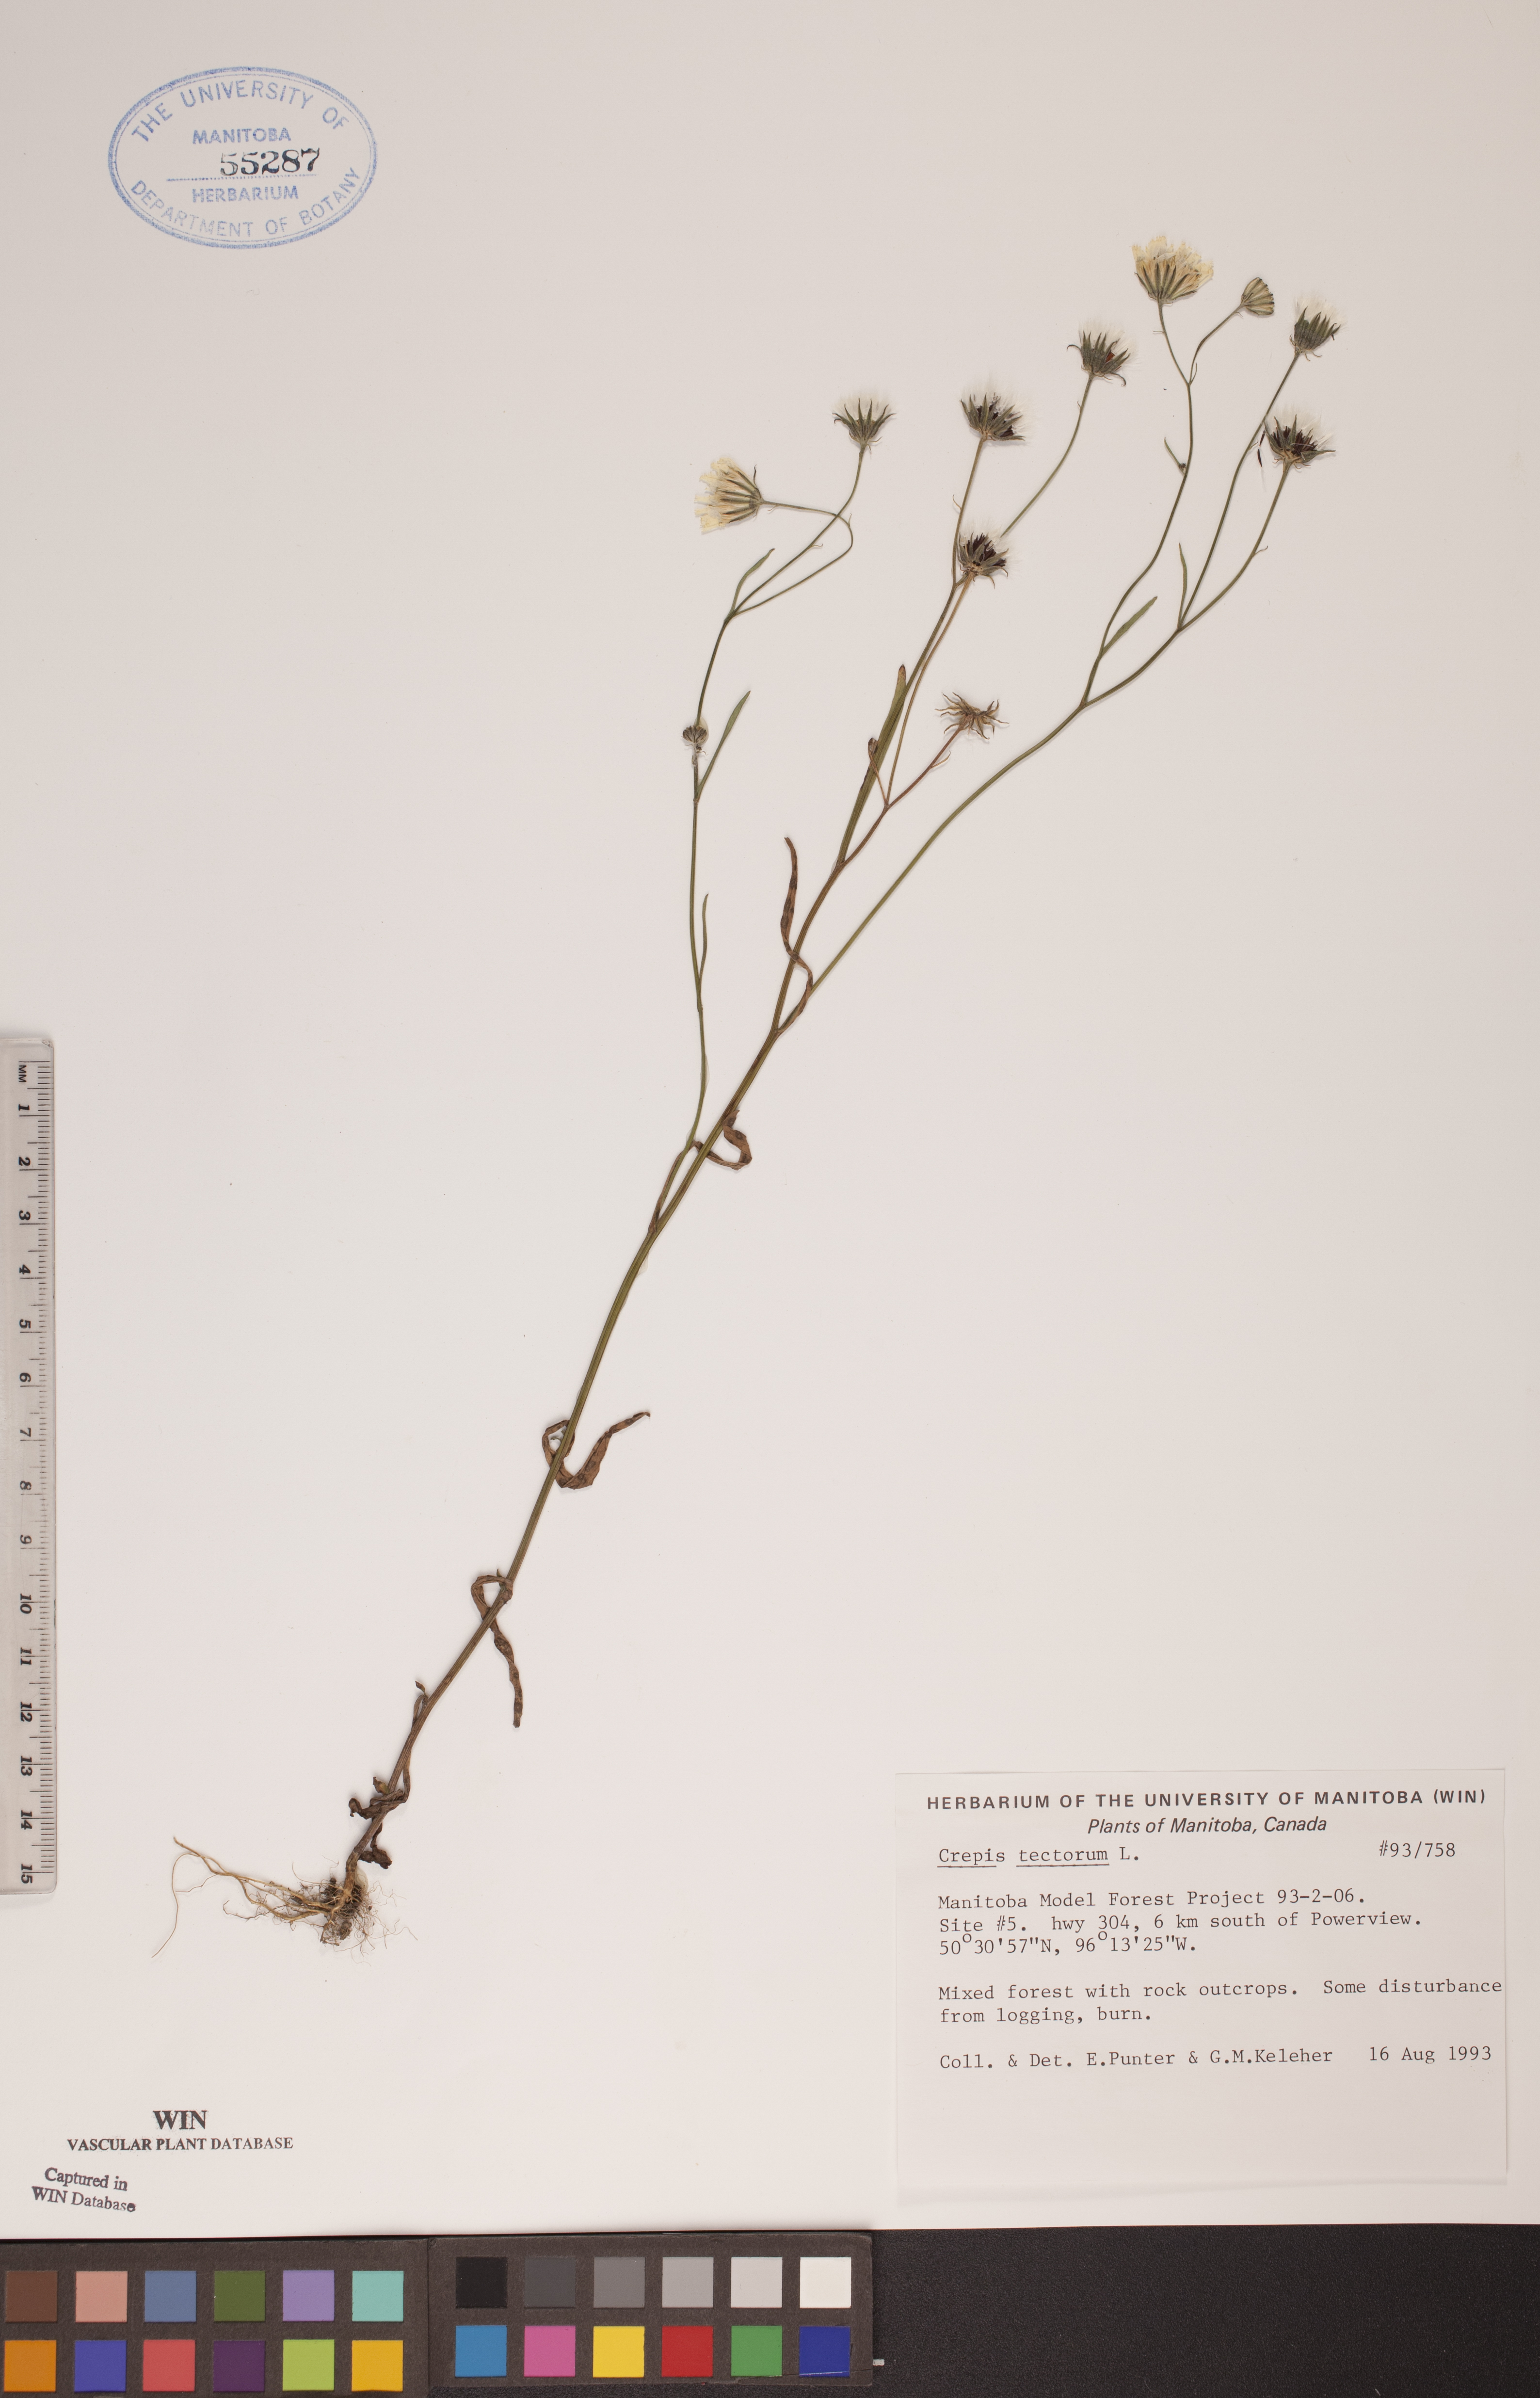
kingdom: Plantae
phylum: Tracheophyta
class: Magnoliopsida
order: Asterales
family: Asteraceae
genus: Crepis
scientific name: Crepis tectorum
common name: Narrow-leaved hawk's-beard
